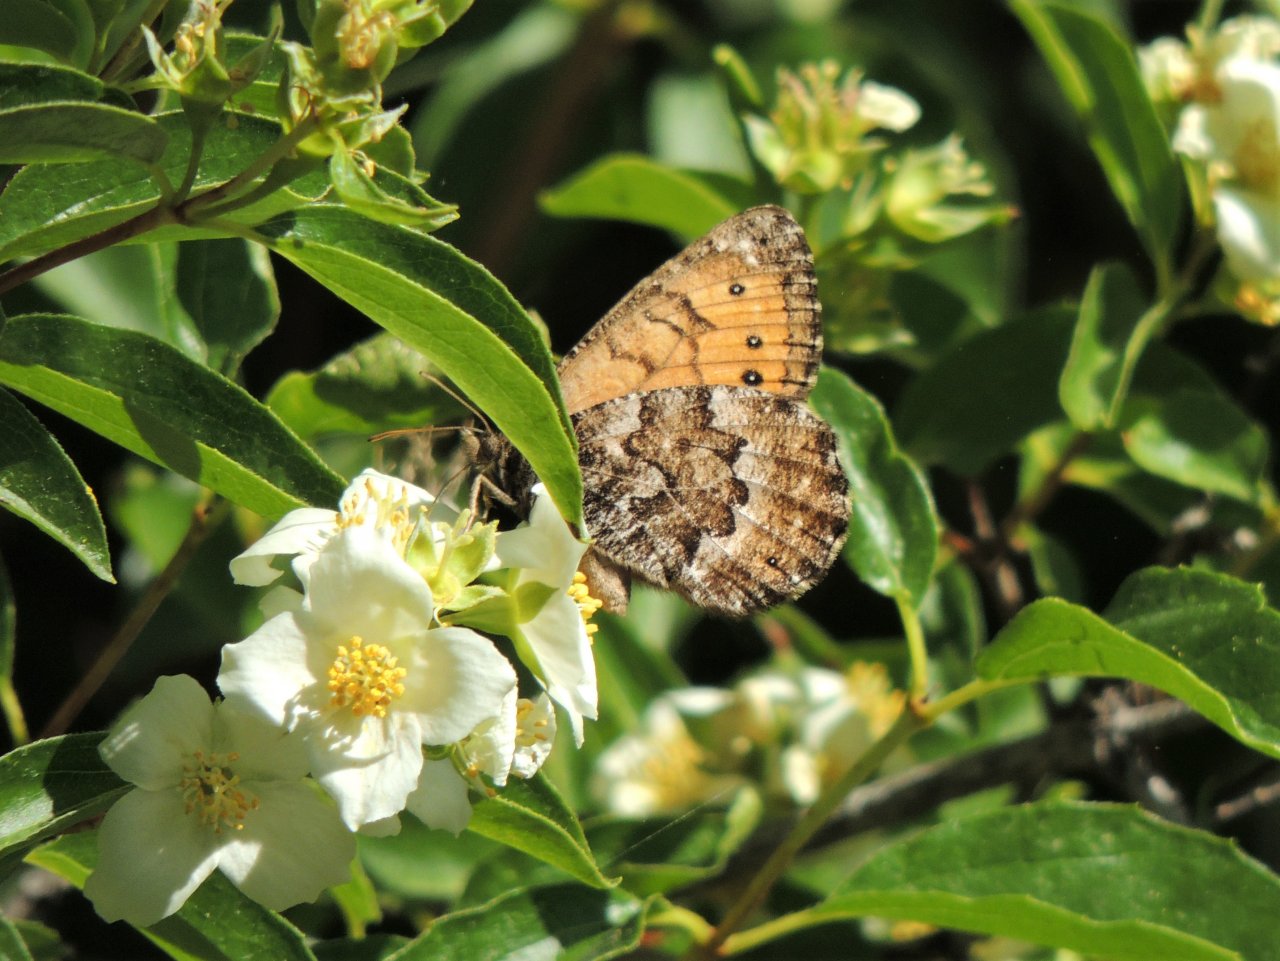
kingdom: Animalia
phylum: Arthropoda
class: Insecta
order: Lepidoptera
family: Nymphalidae
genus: Oeneis
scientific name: Oeneis chryxus
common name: Chryxus Arctic
